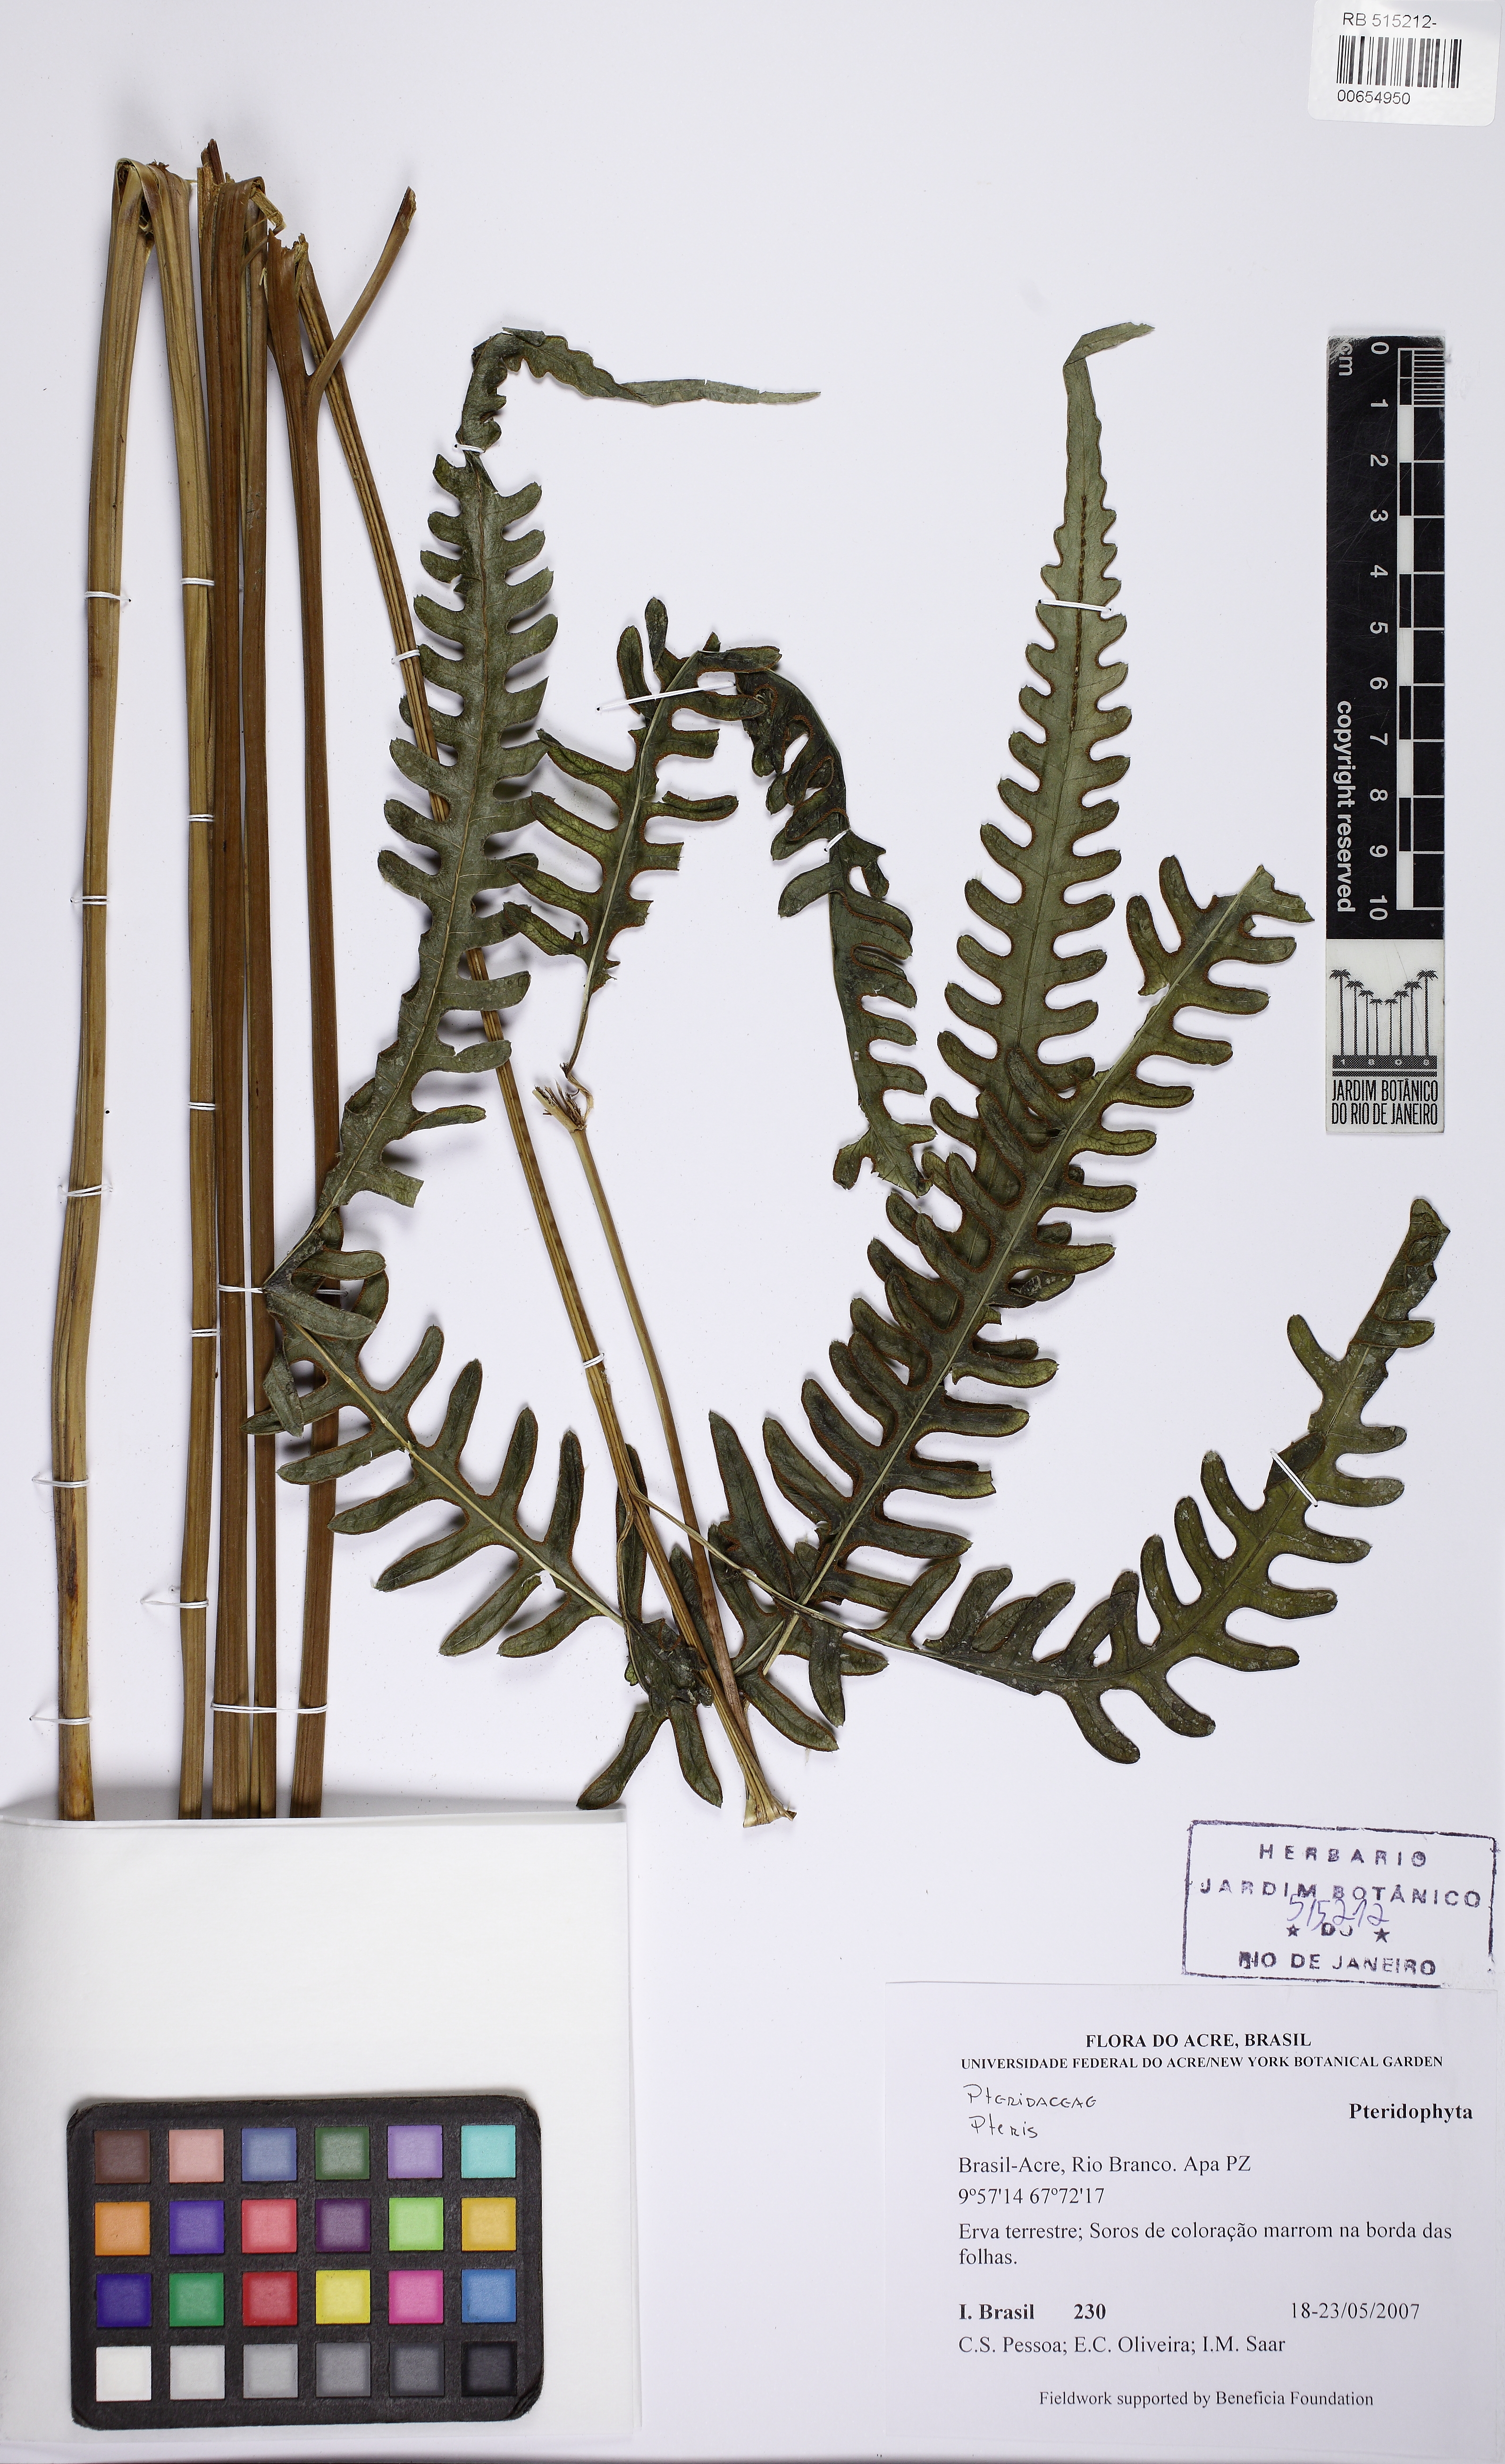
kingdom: Plantae
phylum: Tracheophyta
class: Polypodiopsida
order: Polypodiales
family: Pteridaceae
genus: Pteris
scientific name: Pteris tripartita
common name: Giant brake
